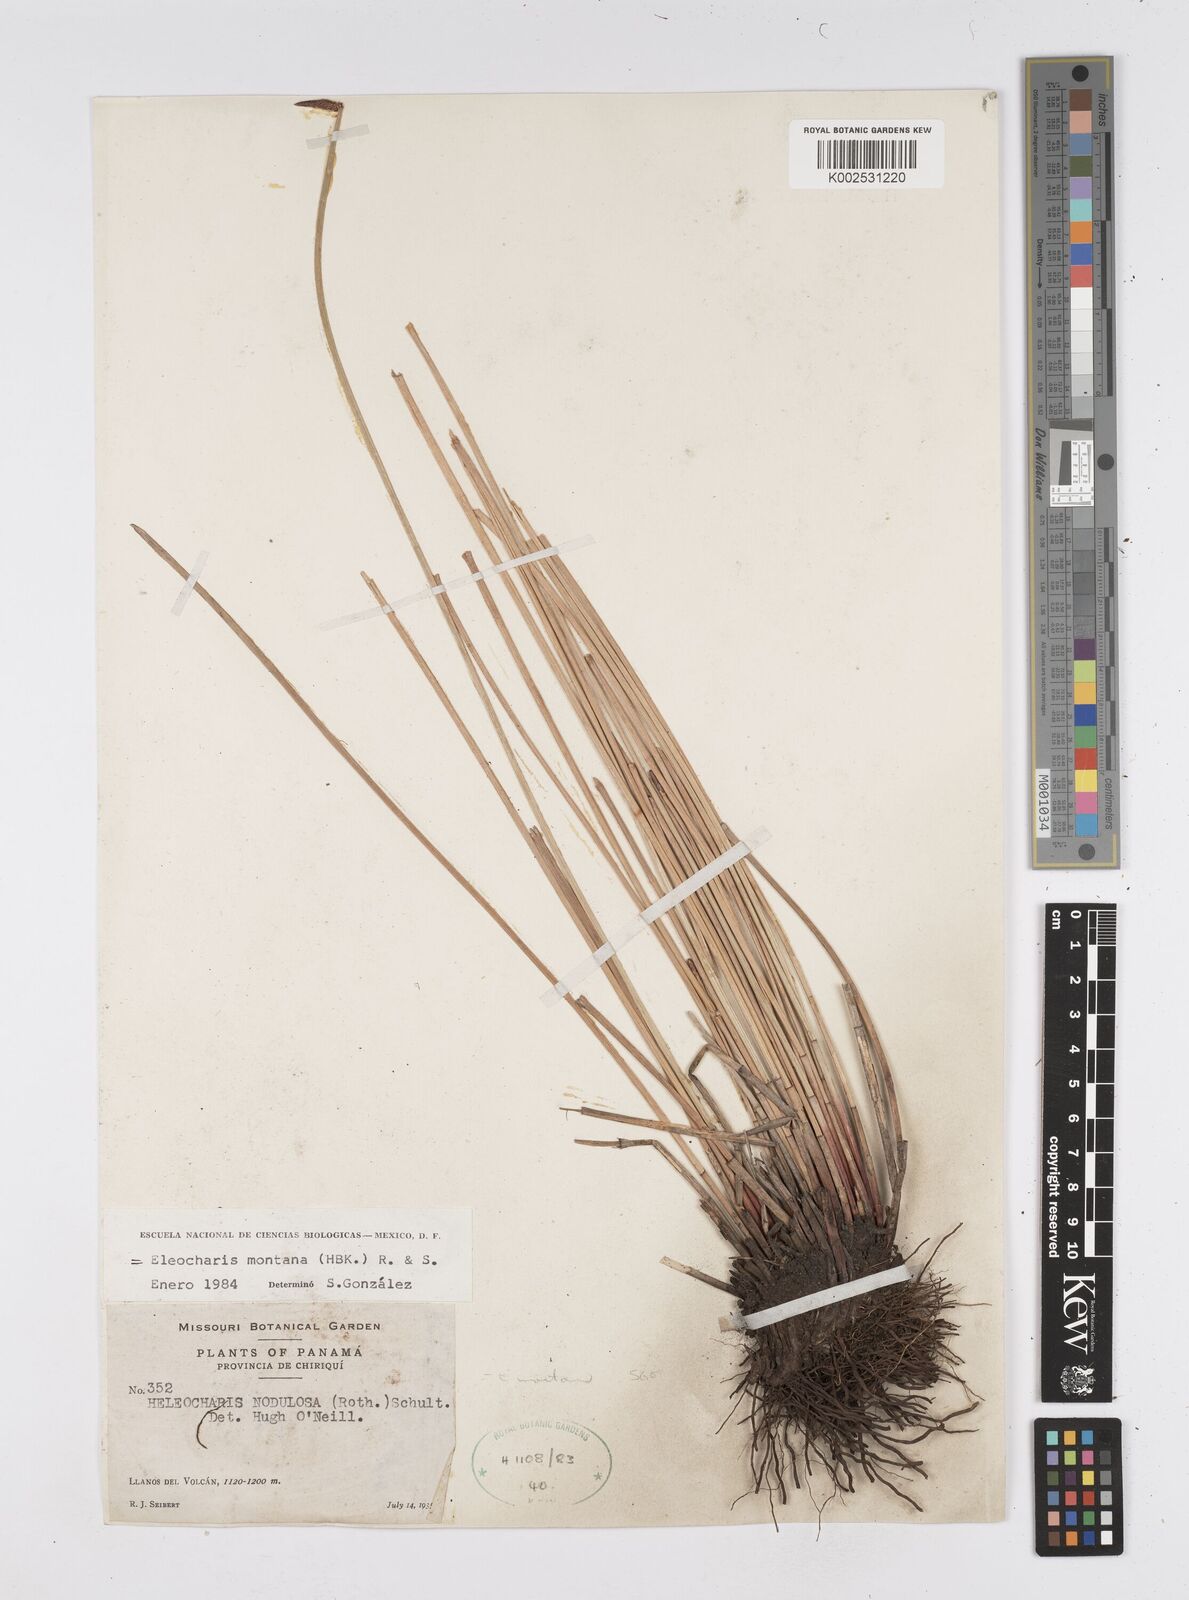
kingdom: Plantae
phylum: Tracheophyta
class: Liliopsida
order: Poales
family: Cyperaceae
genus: Eleocharis
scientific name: Eleocharis montana
